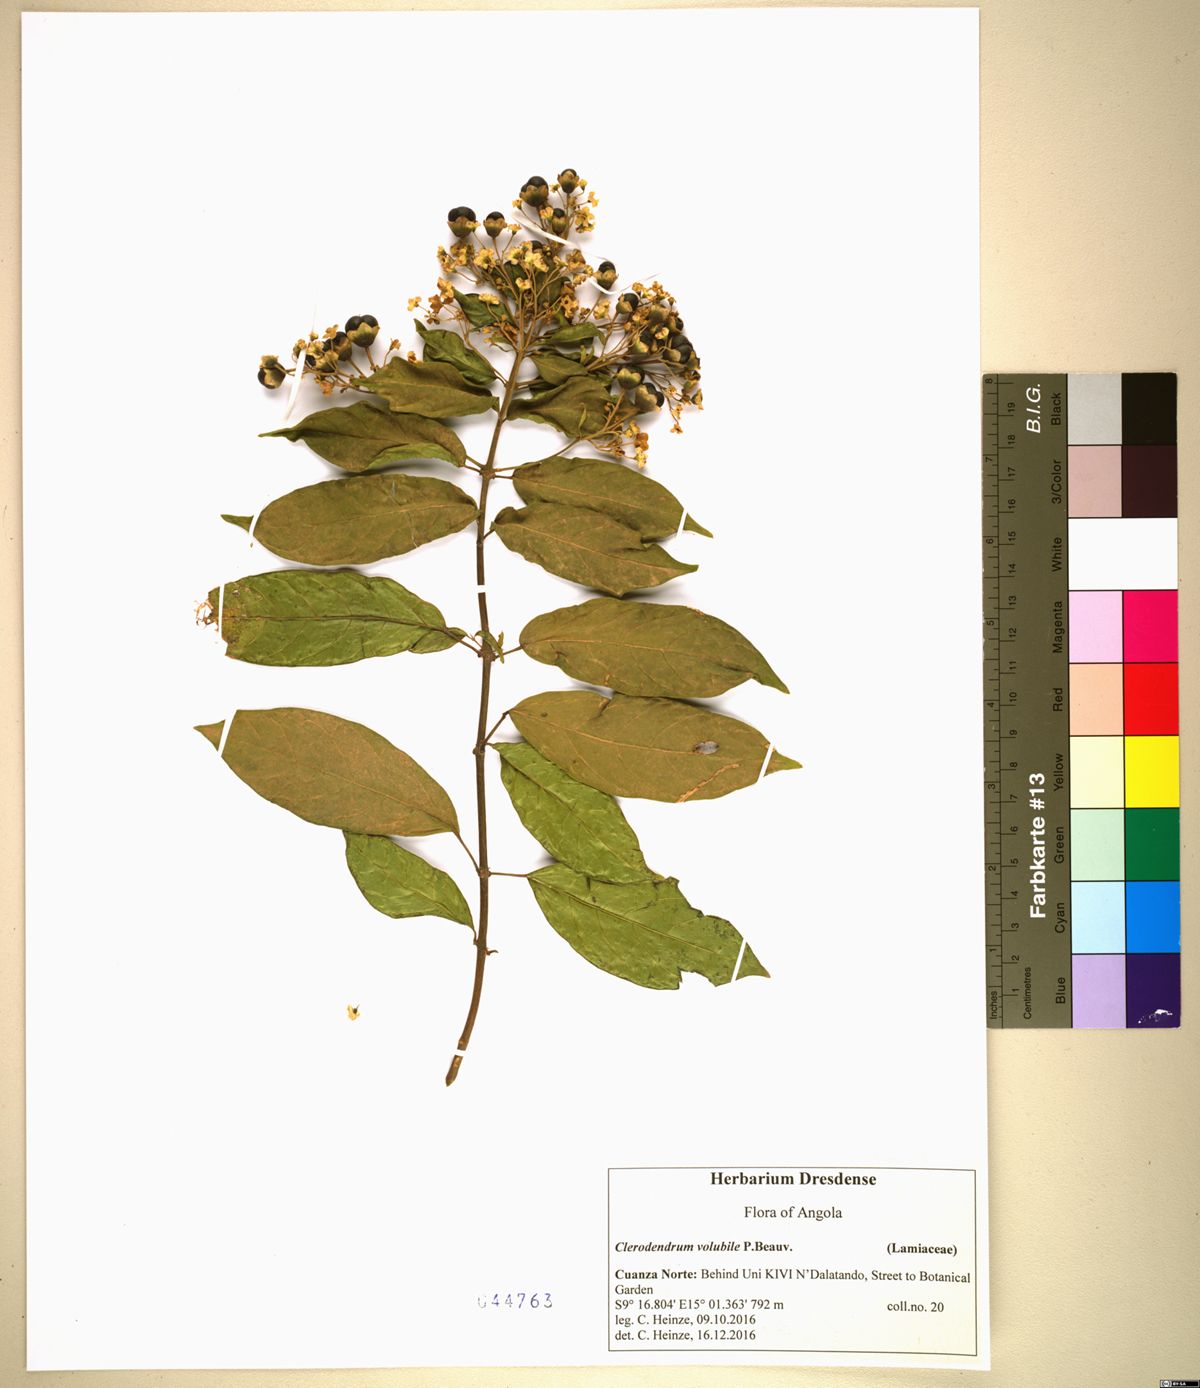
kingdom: Plantae
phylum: Tracheophyta
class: Magnoliopsida
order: Lamiales
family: Lamiaceae
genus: Clerodendrum
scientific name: Clerodendrum volubile
